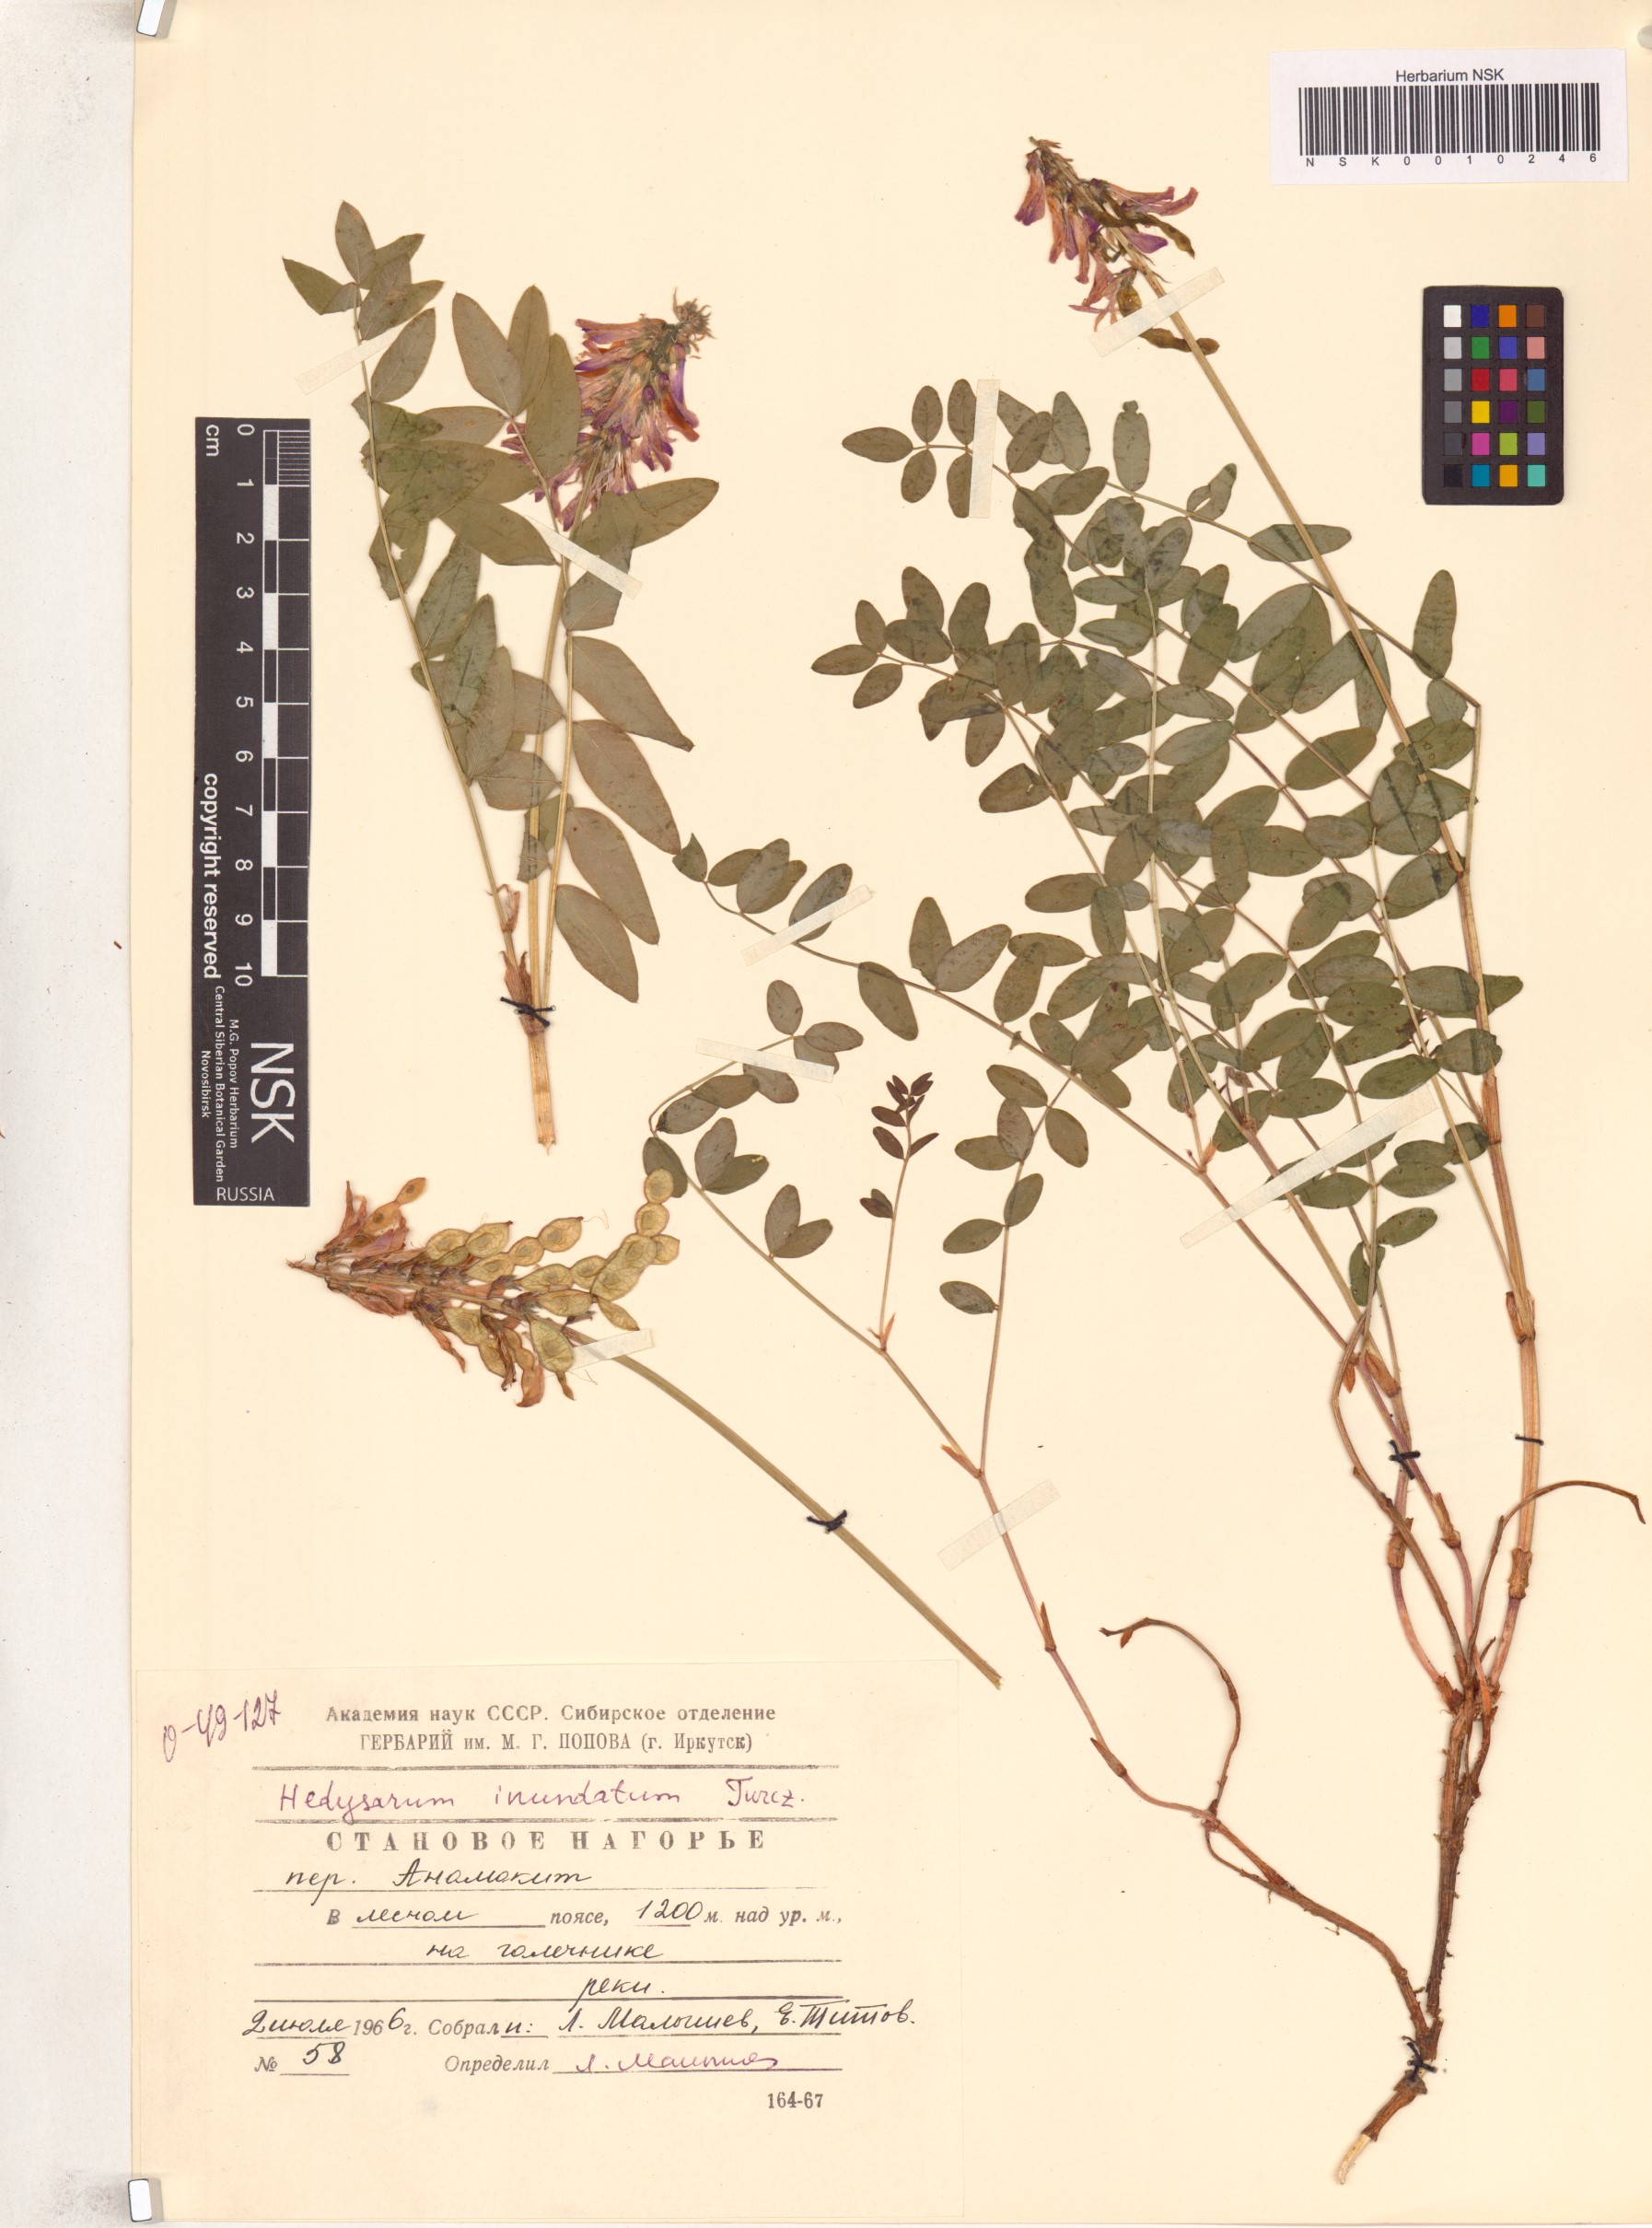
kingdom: Plantae
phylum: Tracheophyta
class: Magnoliopsida
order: Fabales
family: Fabaceae
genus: Hedysarum
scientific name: Hedysarum inundatum
